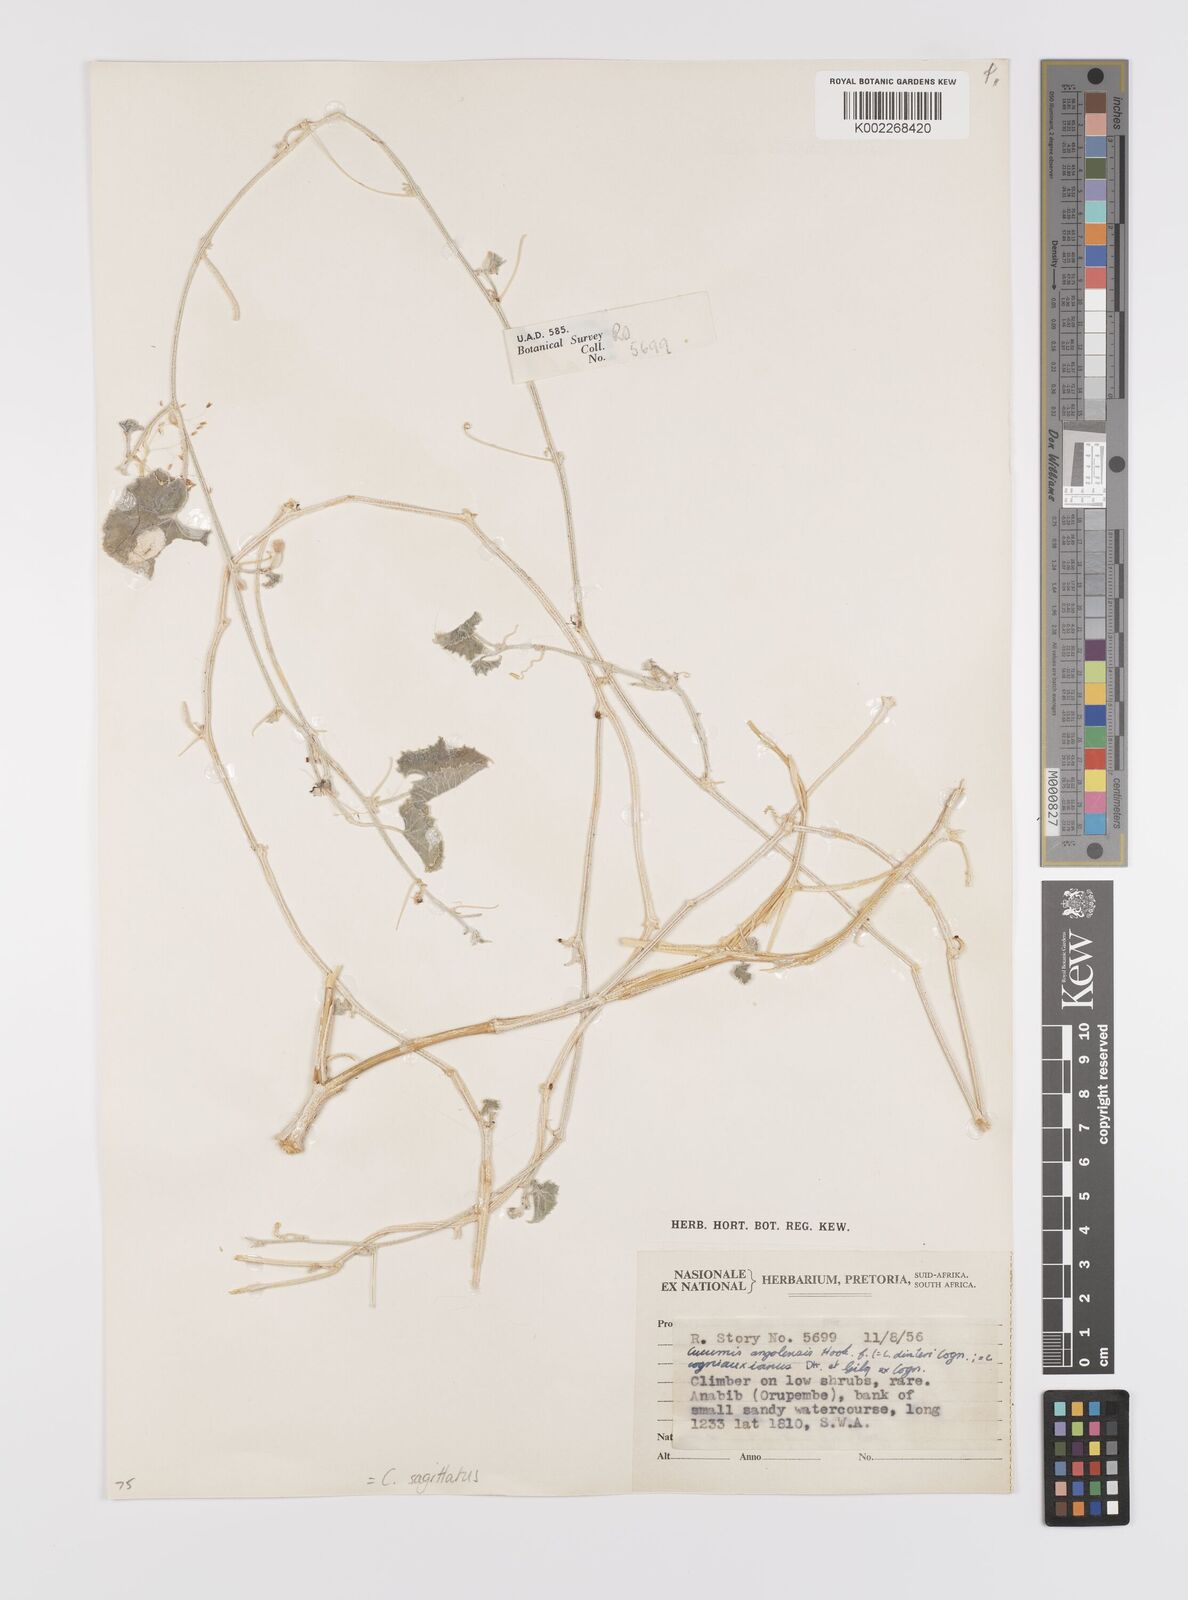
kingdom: Plantae
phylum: Tracheophyta
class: Magnoliopsida
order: Cucurbitales
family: Cucurbitaceae
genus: Cucumis
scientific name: Cucumis sagittatus
